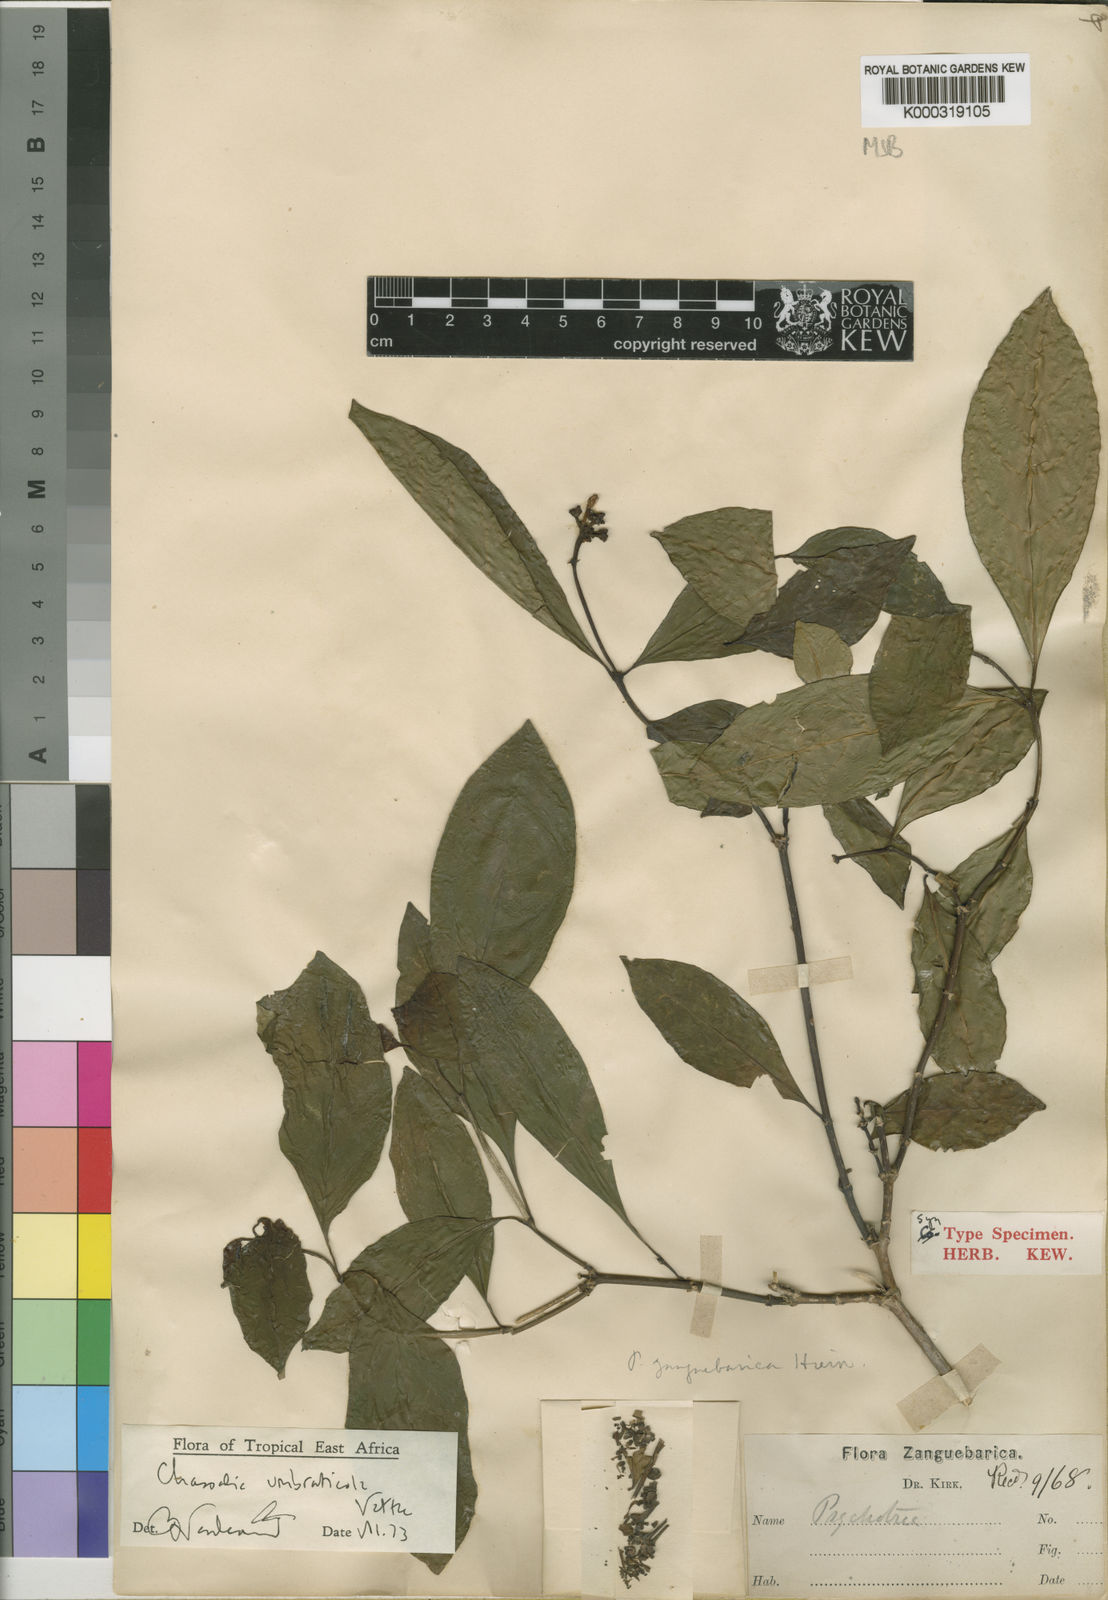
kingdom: Plantae
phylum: Tracheophyta
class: Magnoliopsida
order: Gentianales
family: Rubiaceae
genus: Chassalia
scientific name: Chassalia umbraticola
